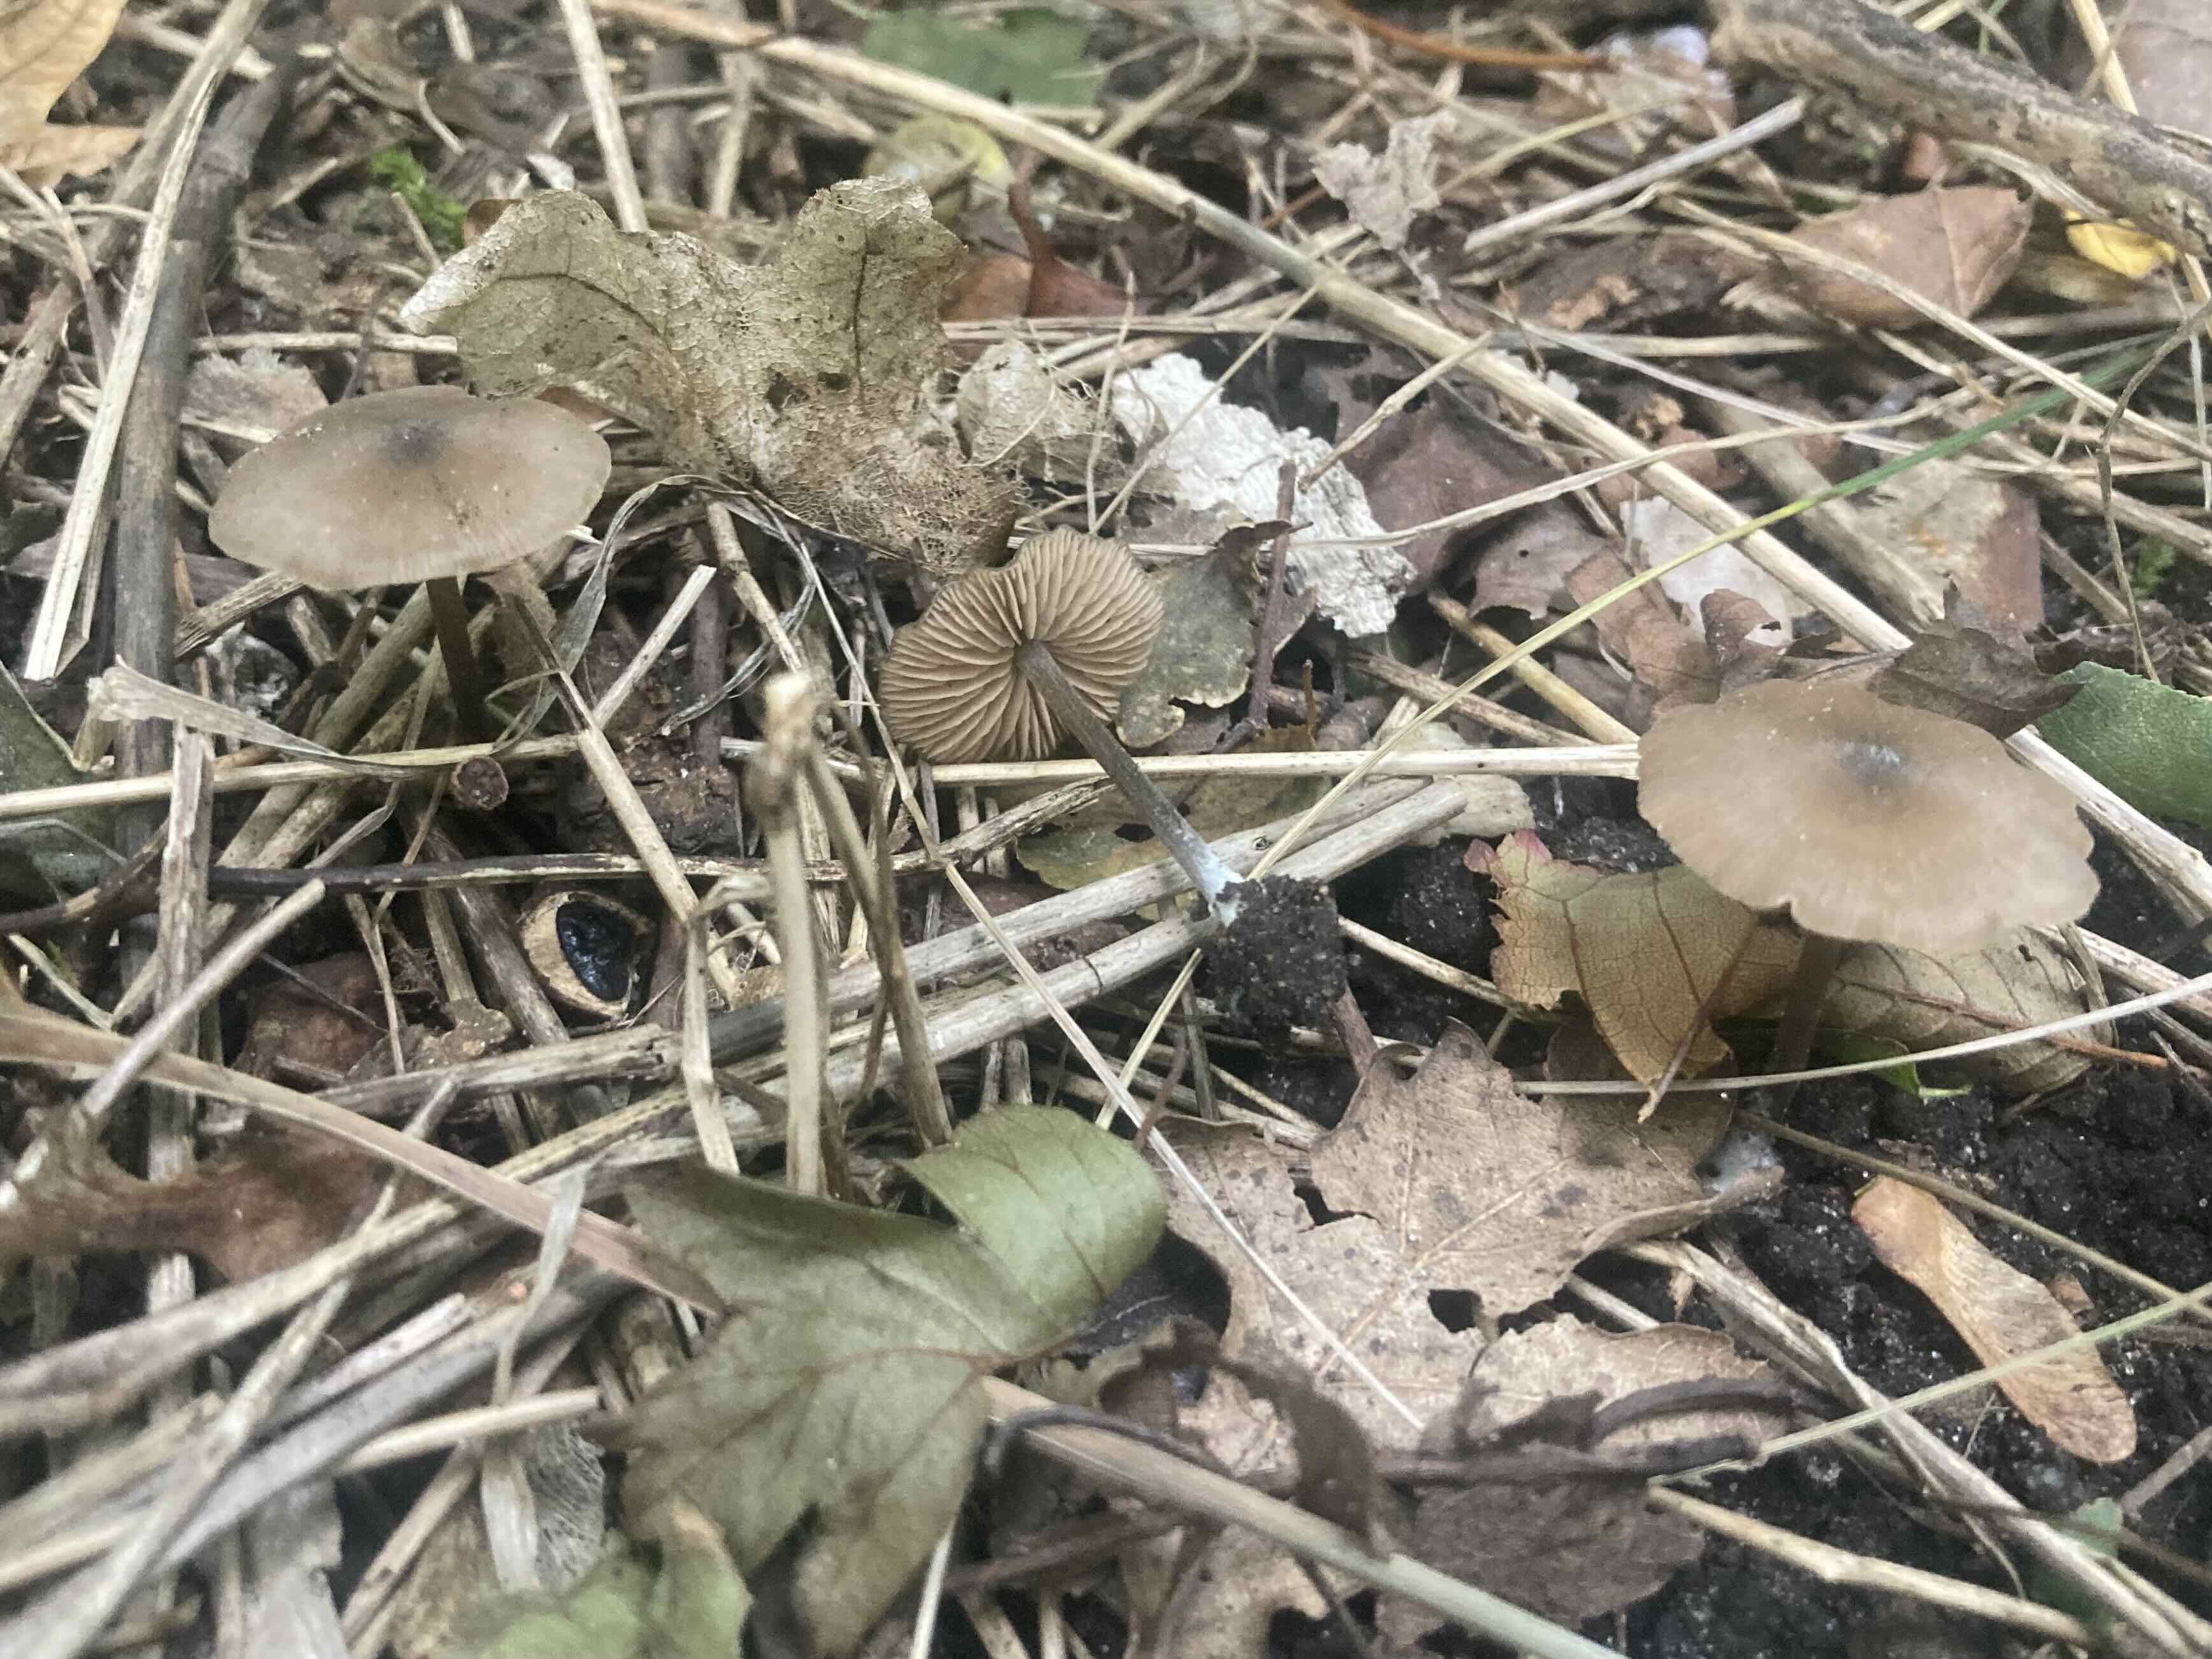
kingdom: Fungi
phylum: Basidiomycota
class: Agaricomycetes
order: Agaricales
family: Entolomataceae
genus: Entoloma
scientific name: Entoloma
